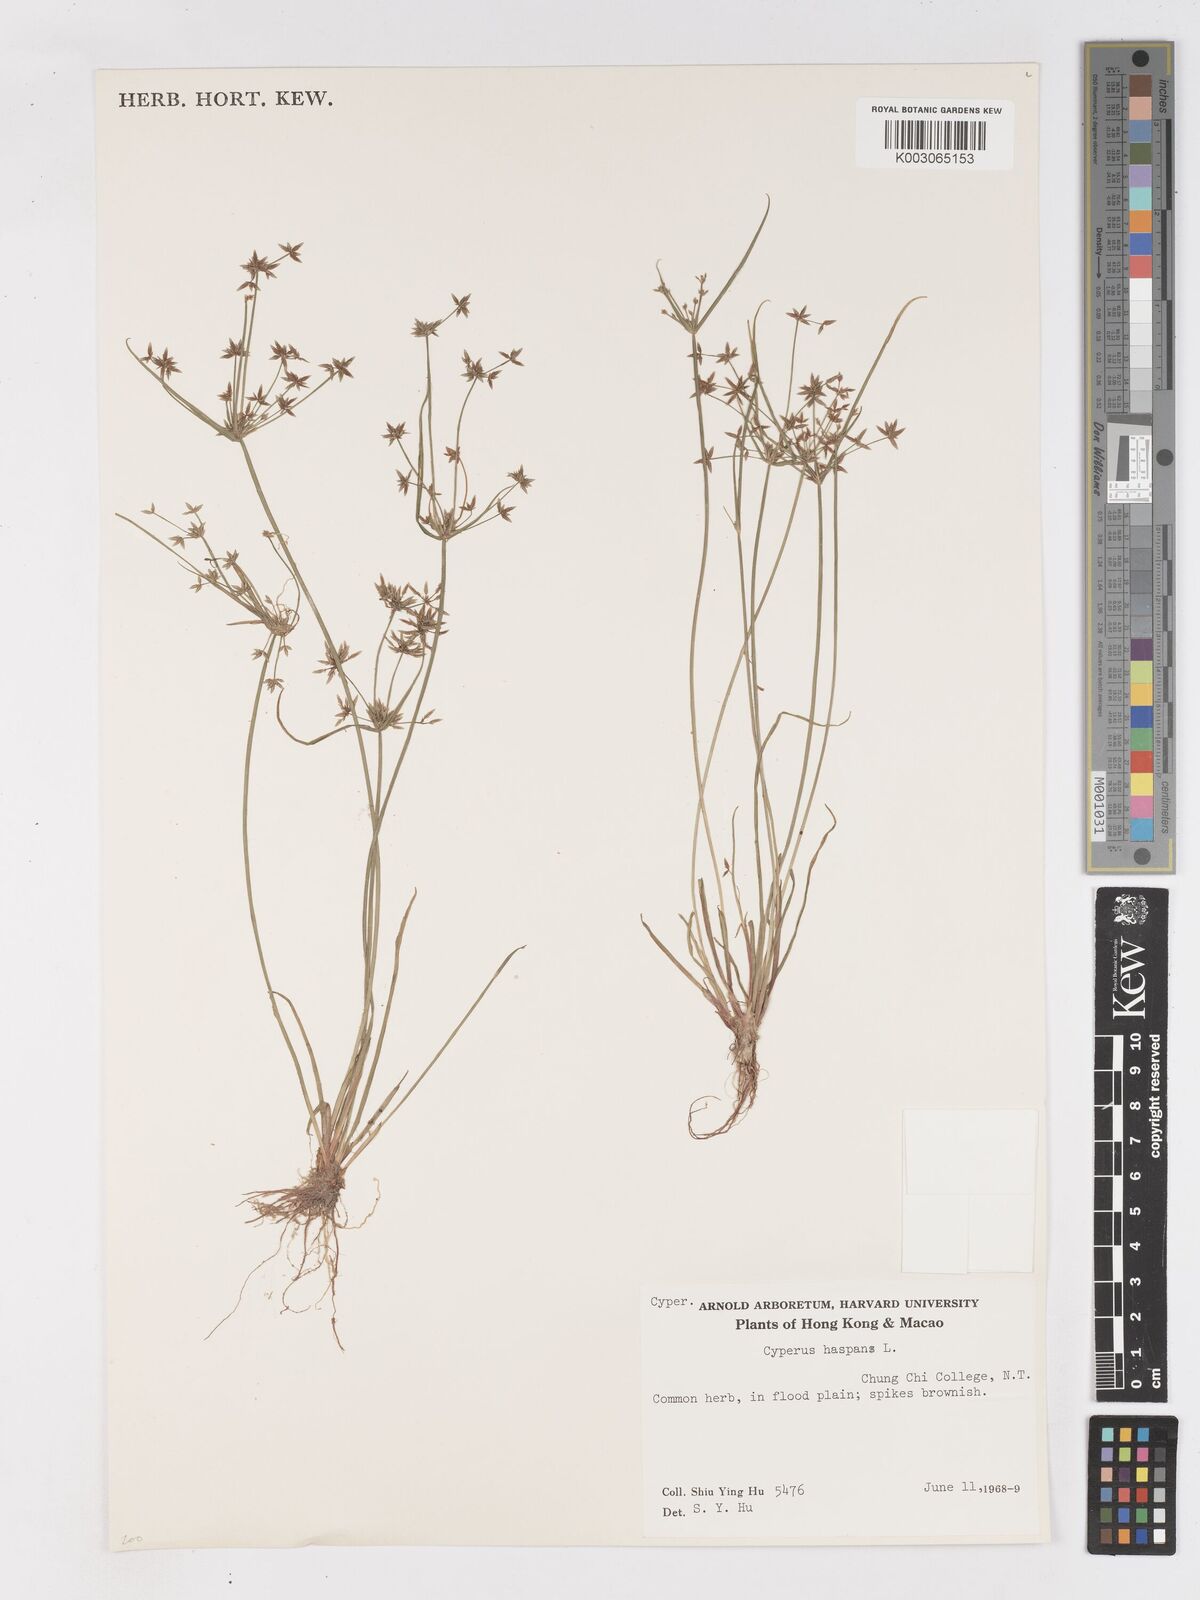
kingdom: Plantae
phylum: Tracheophyta
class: Liliopsida
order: Poales
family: Cyperaceae
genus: Cyperus
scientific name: Cyperus haspan
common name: Haspan flatsedge
